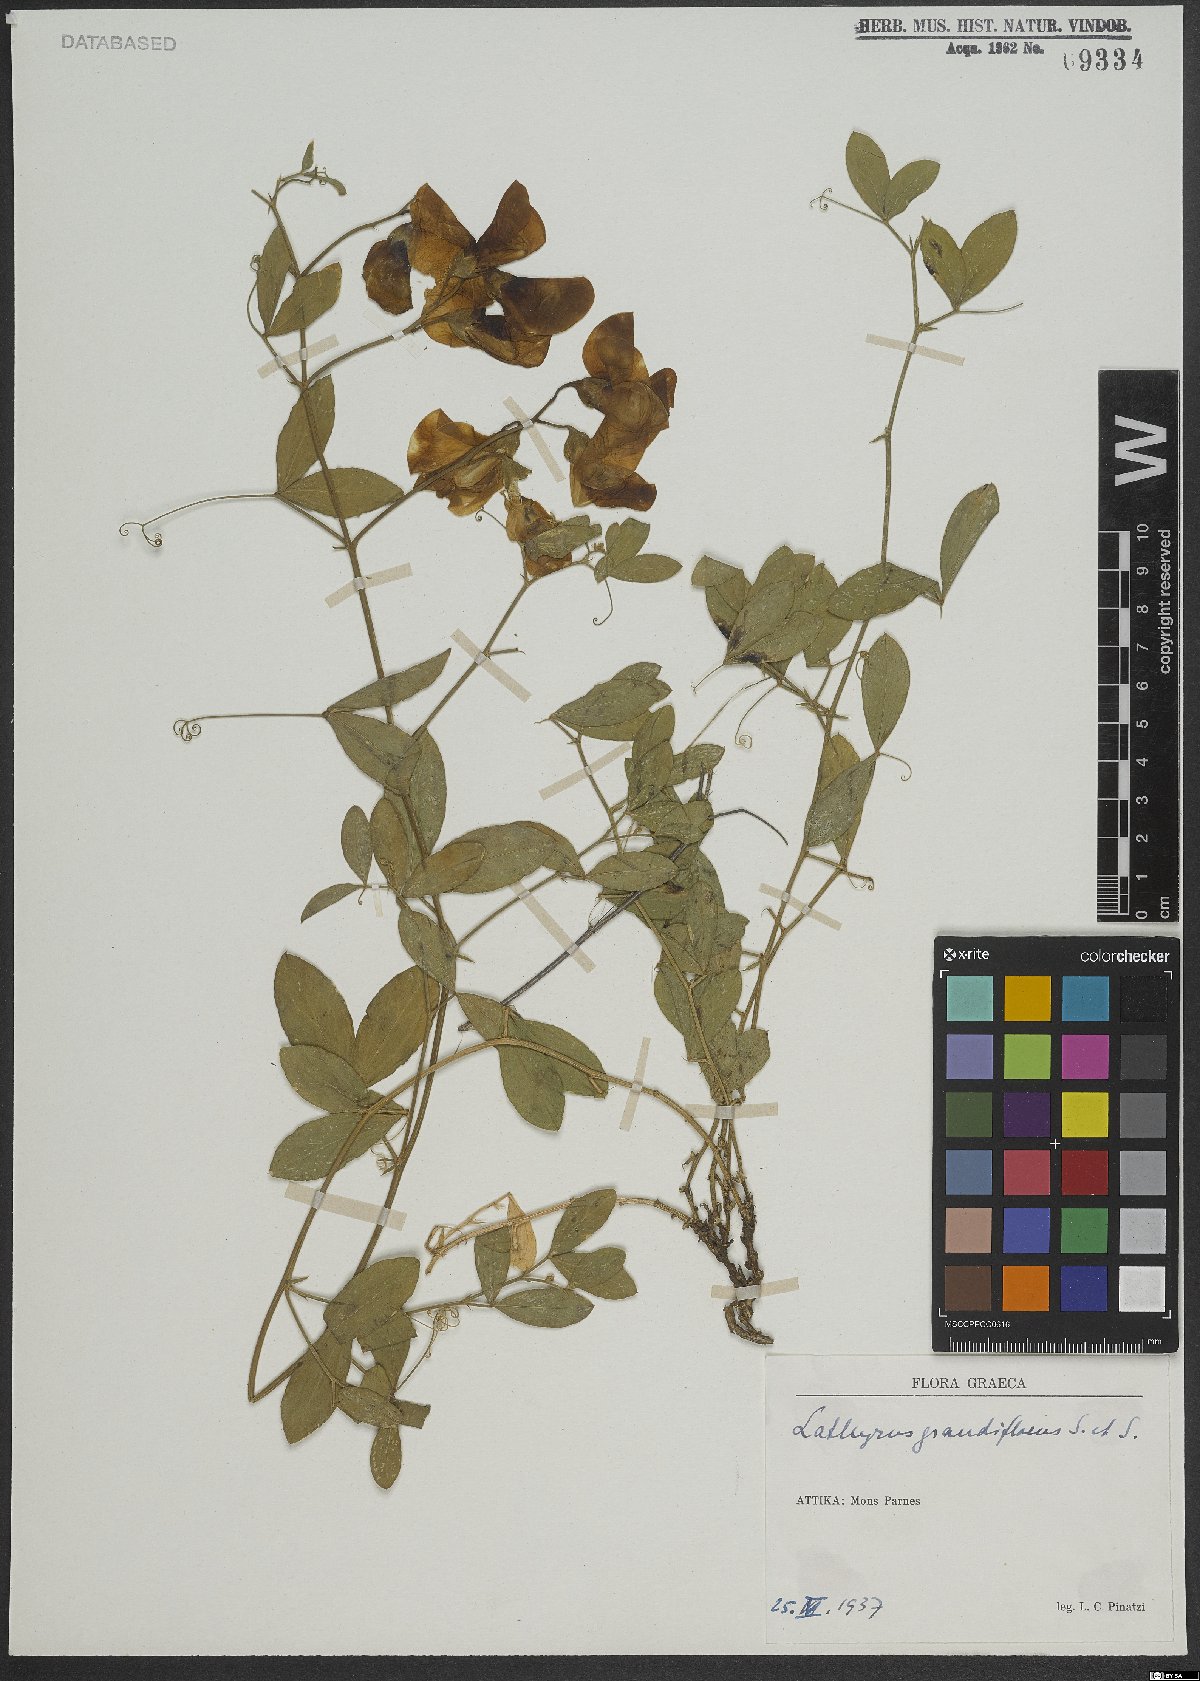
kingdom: Plantae
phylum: Tracheophyta
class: Magnoliopsida
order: Fabales
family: Fabaceae
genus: Lathyrus
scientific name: Lathyrus grandiflorus
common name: Two-flowered everlasting-pea
